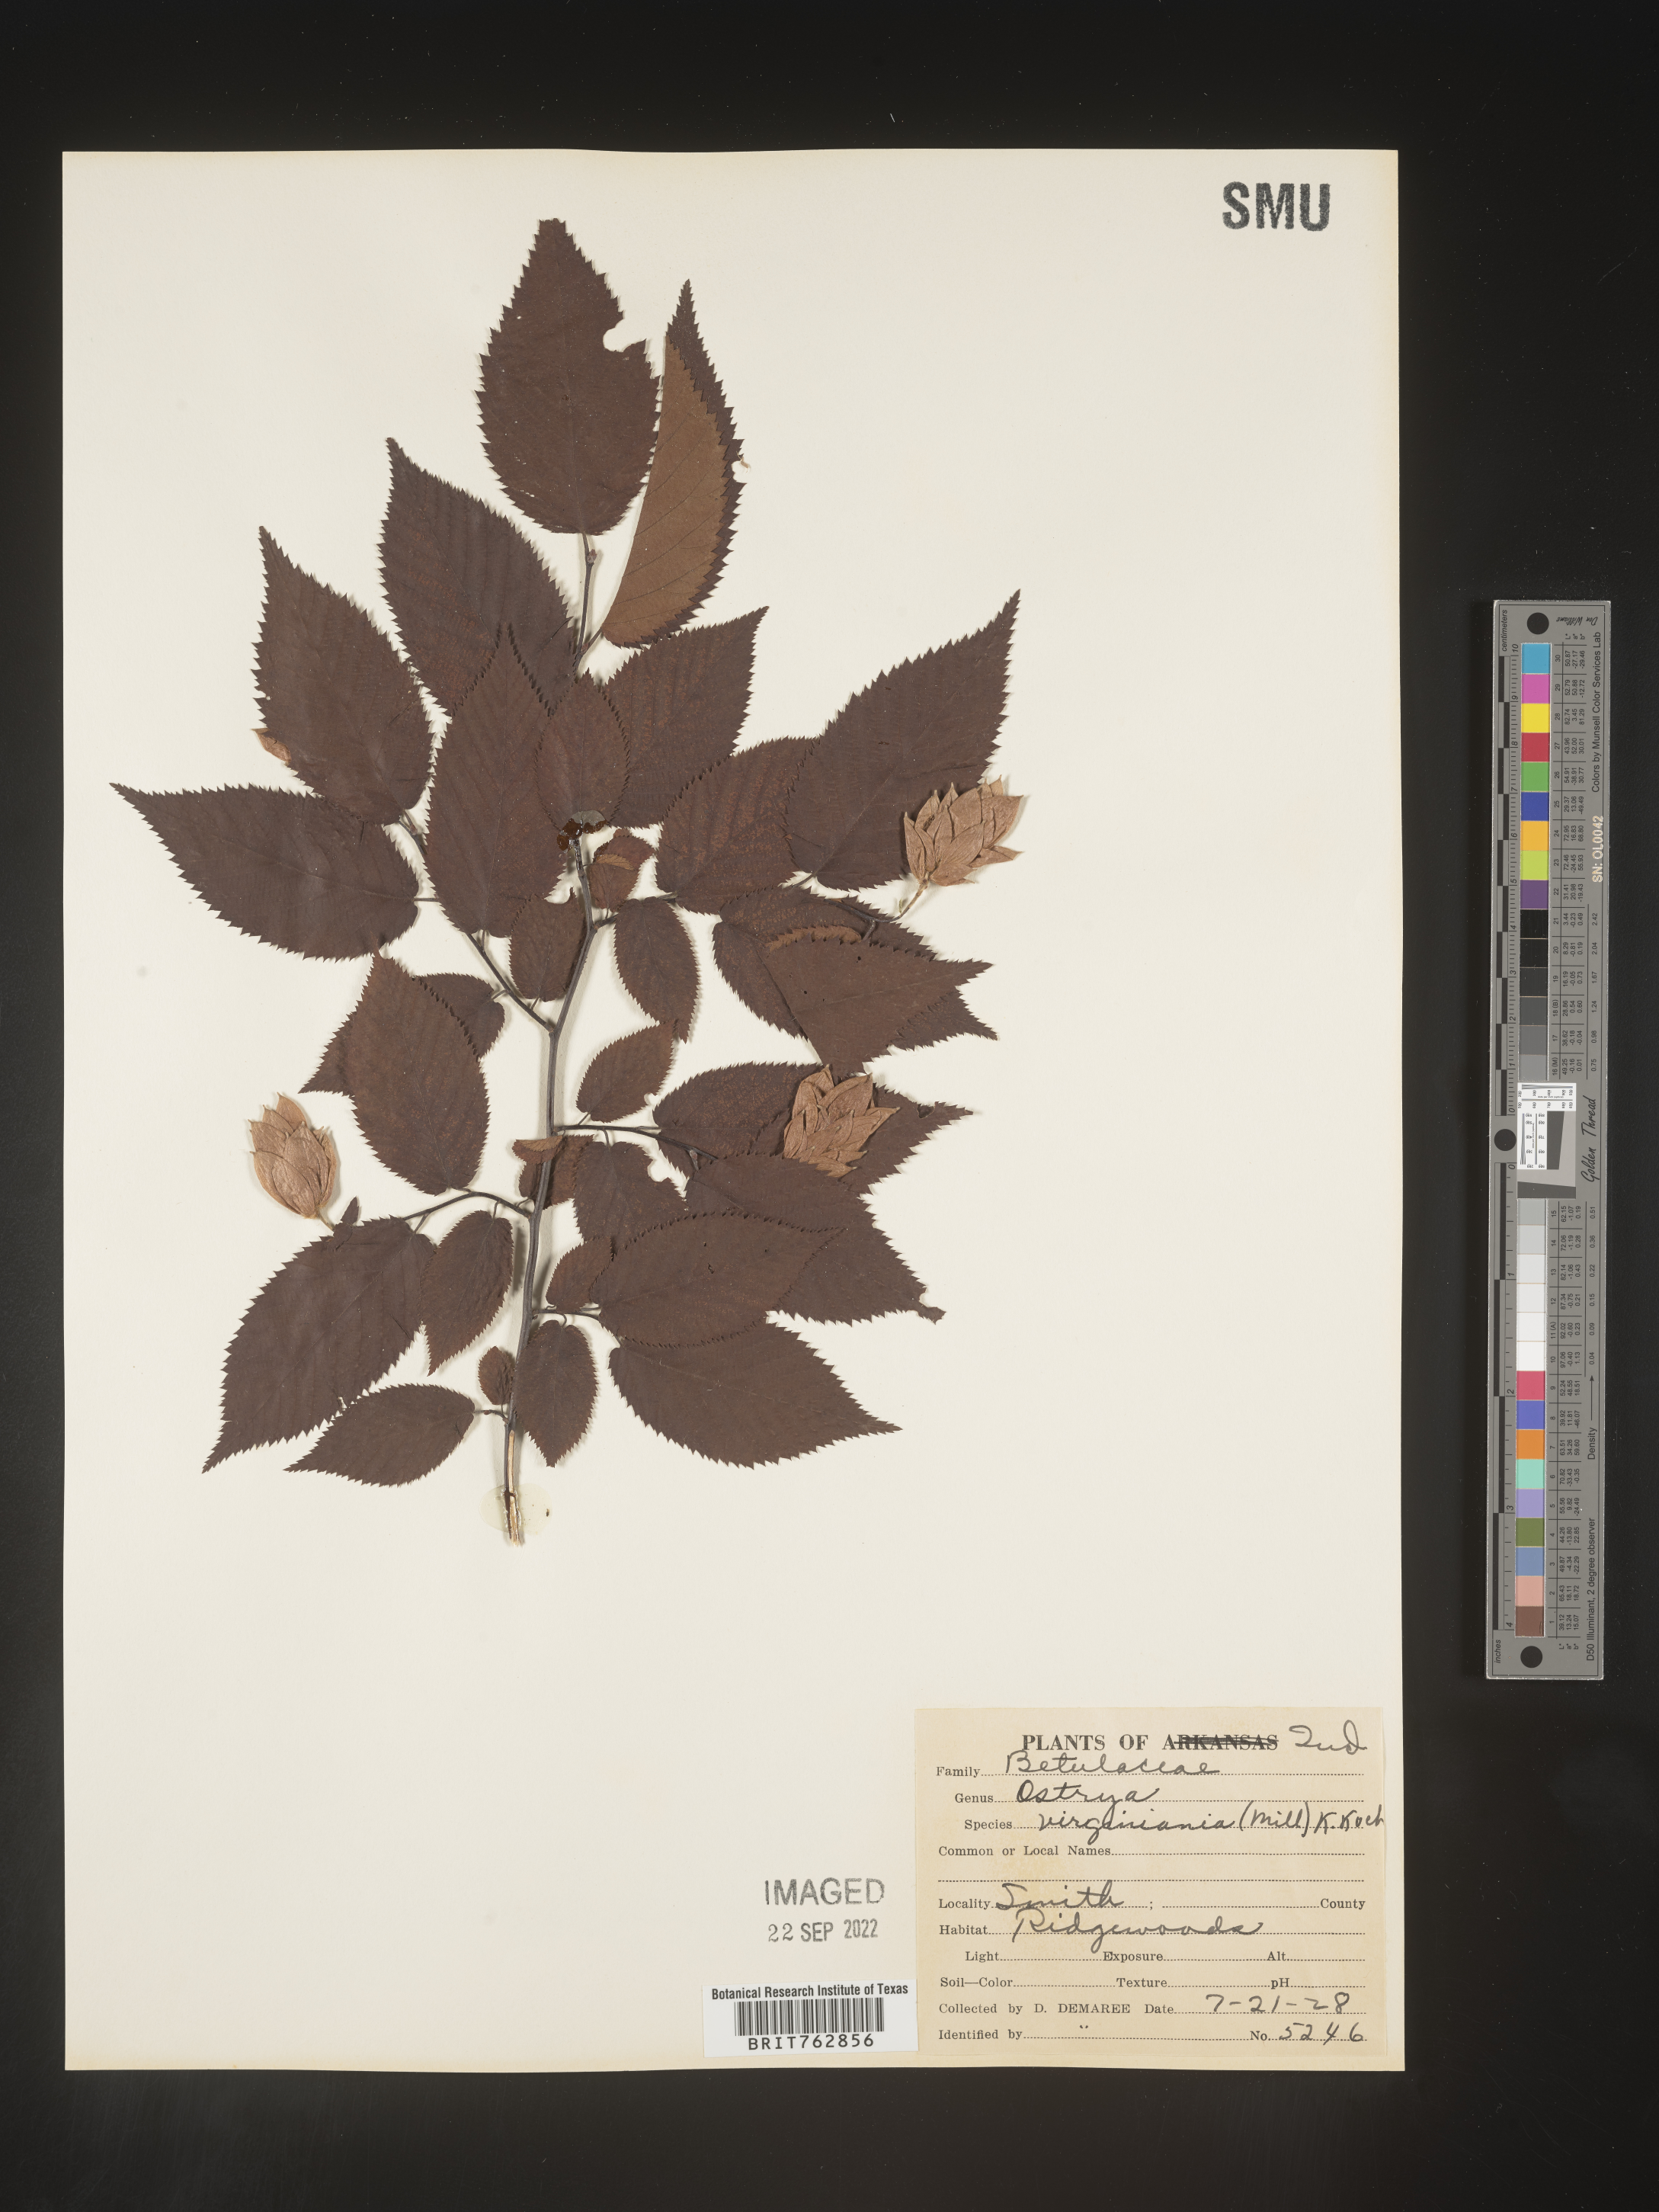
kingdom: Plantae
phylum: Tracheophyta
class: Magnoliopsida
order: Fagales
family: Betulaceae
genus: Ostrya
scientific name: Ostrya virginiana
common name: Ironwood
